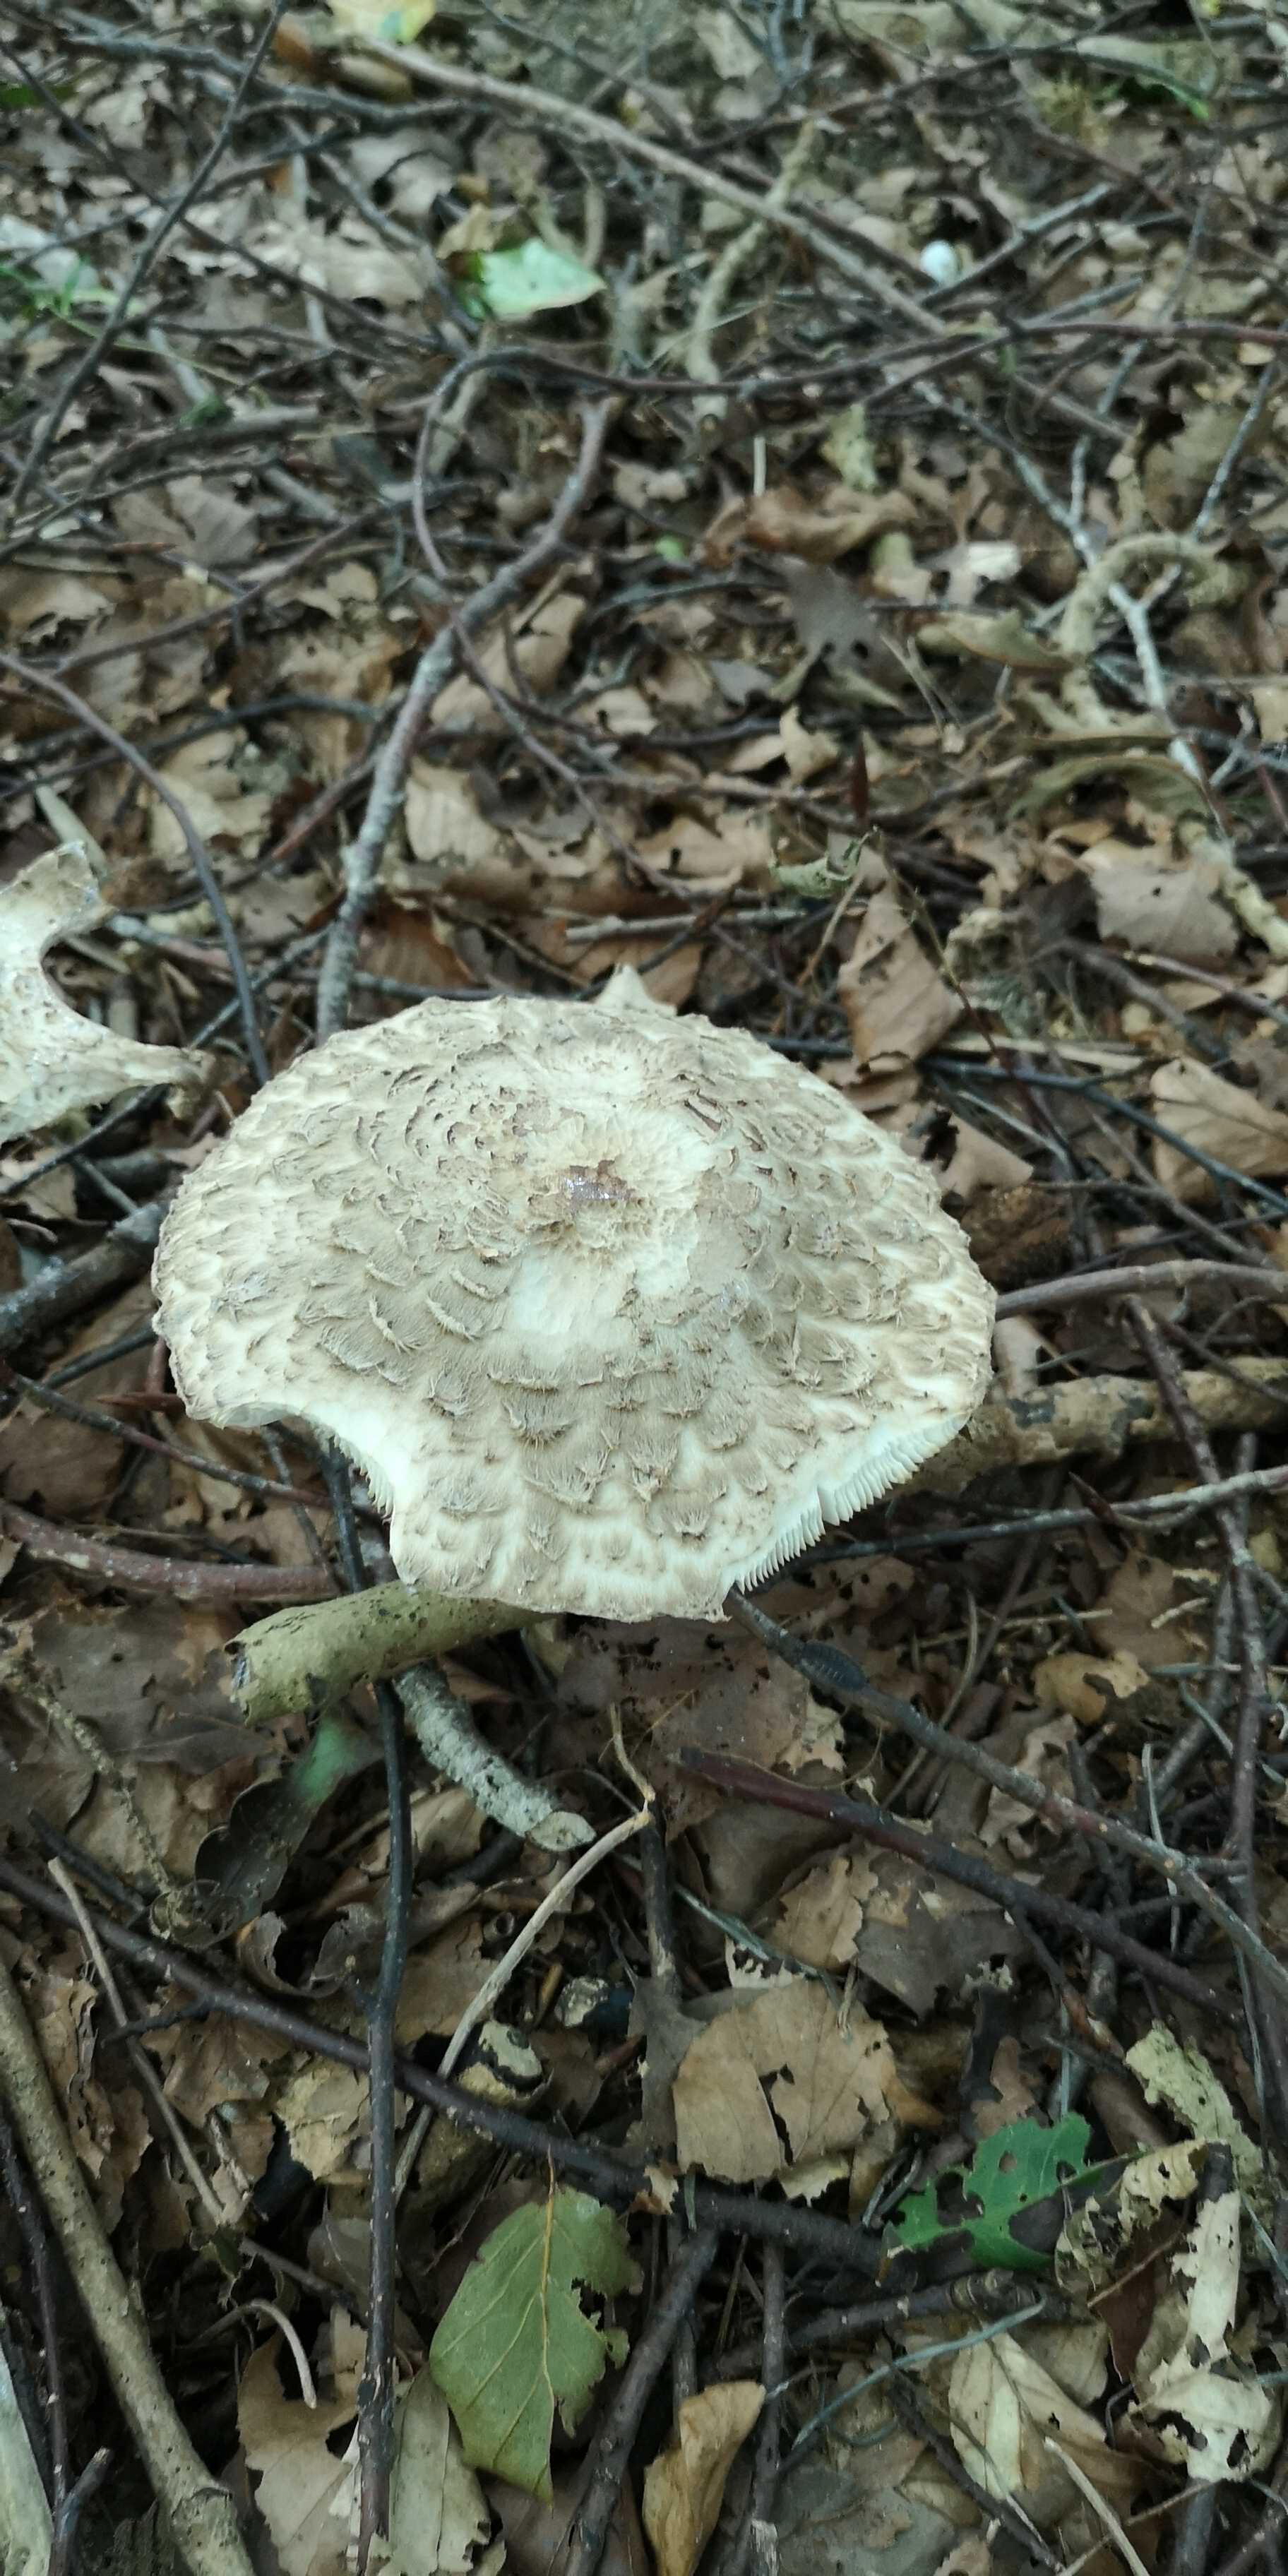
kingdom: Fungi
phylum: Basidiomycota
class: Agaricomycetes
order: Agaricales
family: Agaricaceae
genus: Chlorophyllum
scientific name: Chlorophyllum olivieri
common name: almindelig rabarberhat
